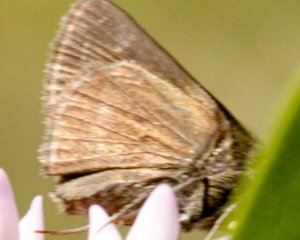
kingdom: Animalia
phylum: Arthropoda
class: Insecta
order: Lepidoptera
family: Hesperiidae
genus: Euphyes
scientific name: Euphyes vestris
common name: Dun Skipper
